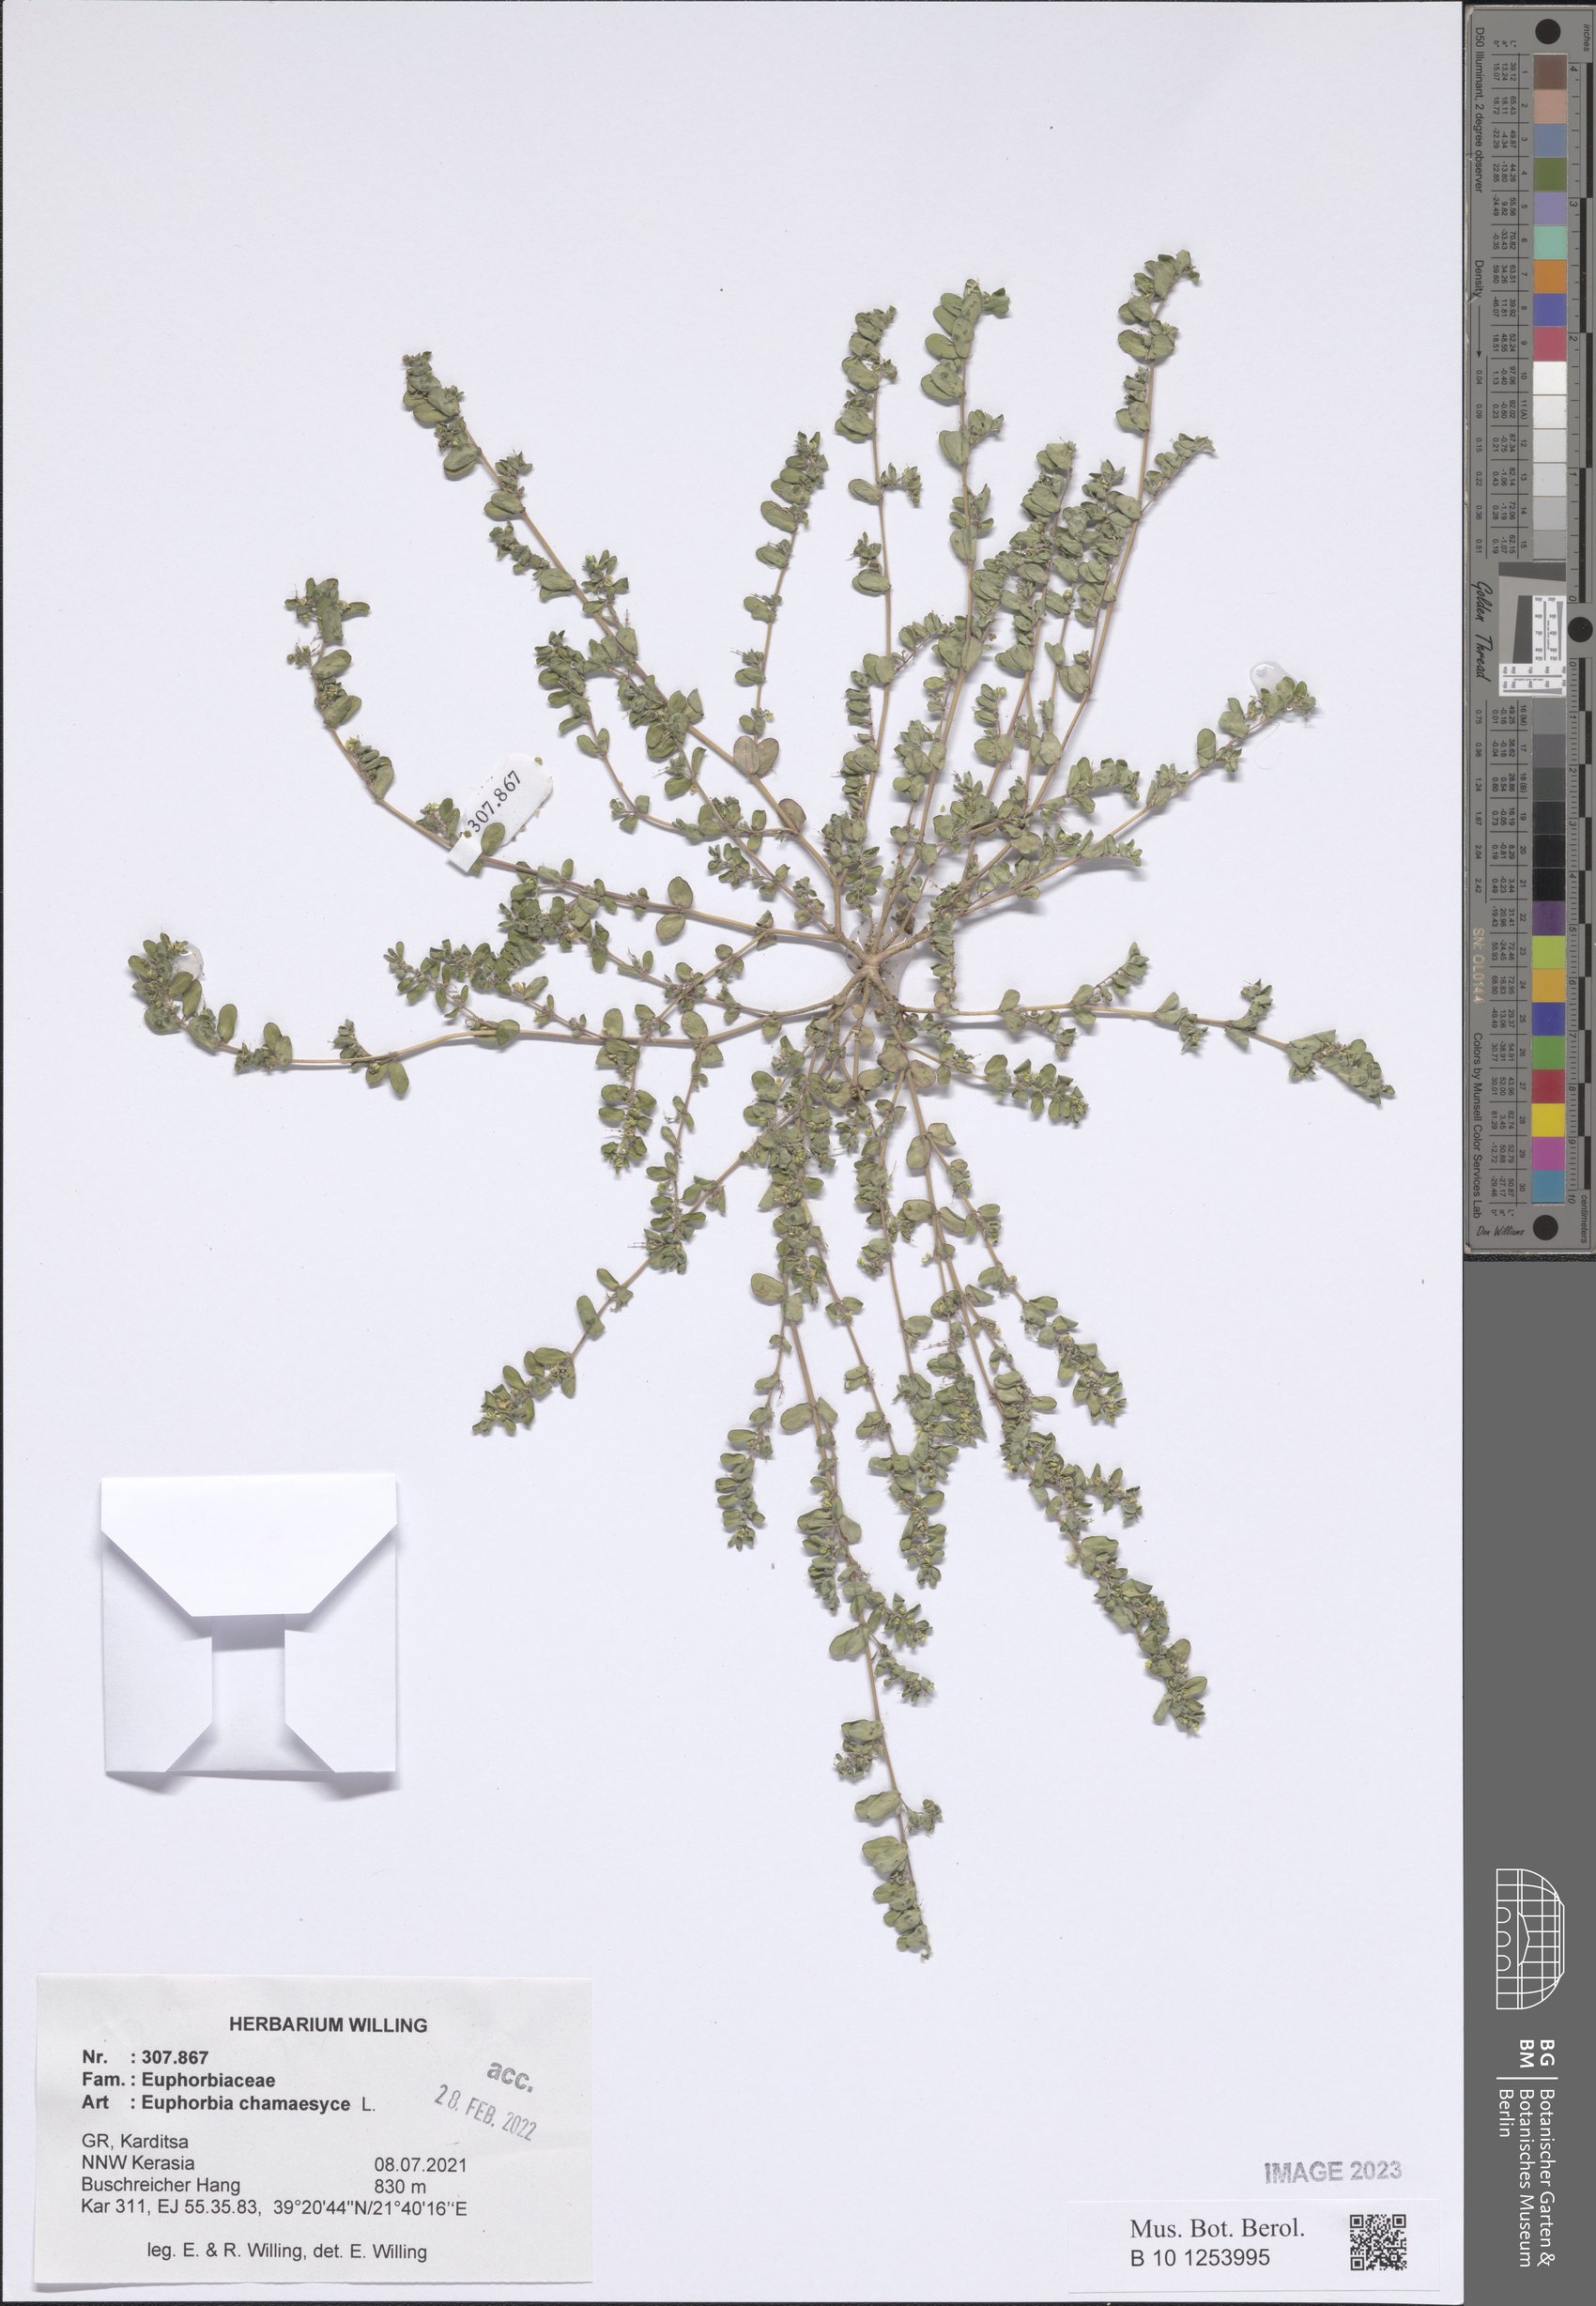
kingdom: Plantae
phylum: Tracheophyta
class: Magnoliopsida
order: Malpighiales
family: Euphorbiaceae
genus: Euphorbia
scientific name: Euphorbia chamaesyce
